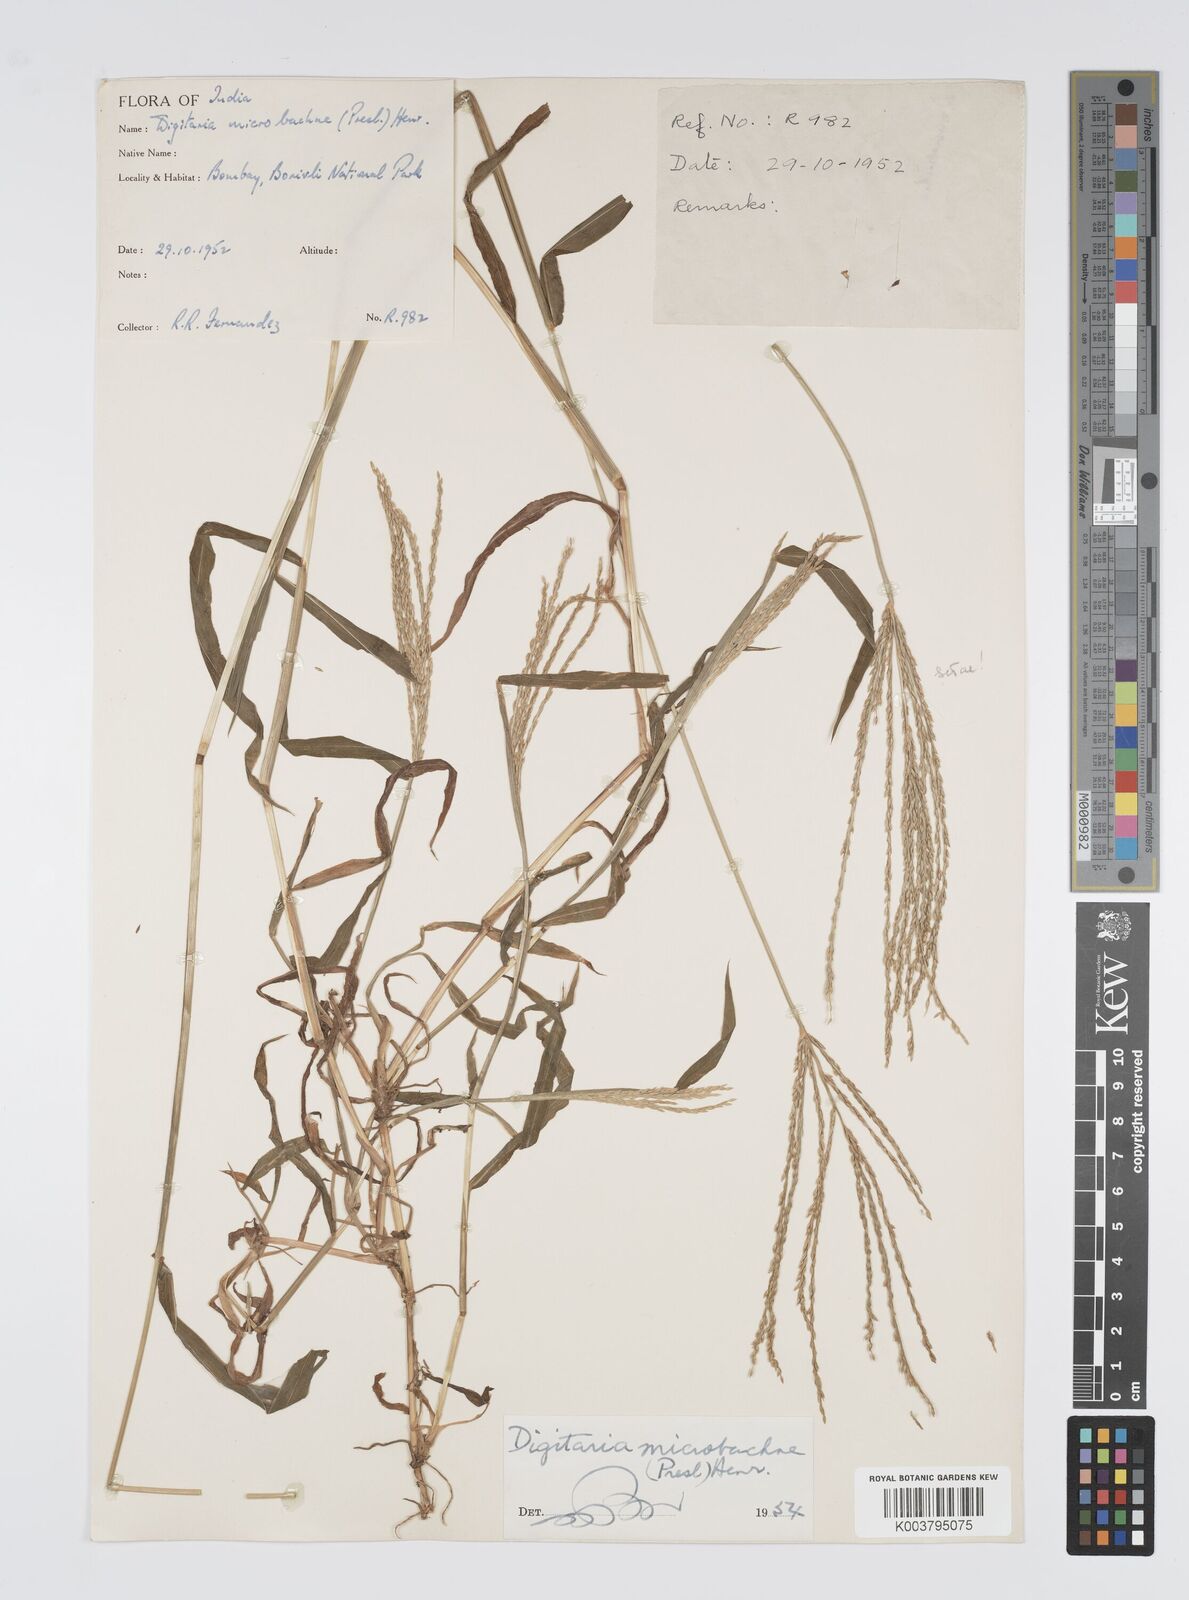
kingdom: Plantae
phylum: Tracheophyta
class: Liliopsida
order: Poales
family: Poaceae
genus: Digitaria
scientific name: Digitaria setigera
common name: East indian crabgrass
